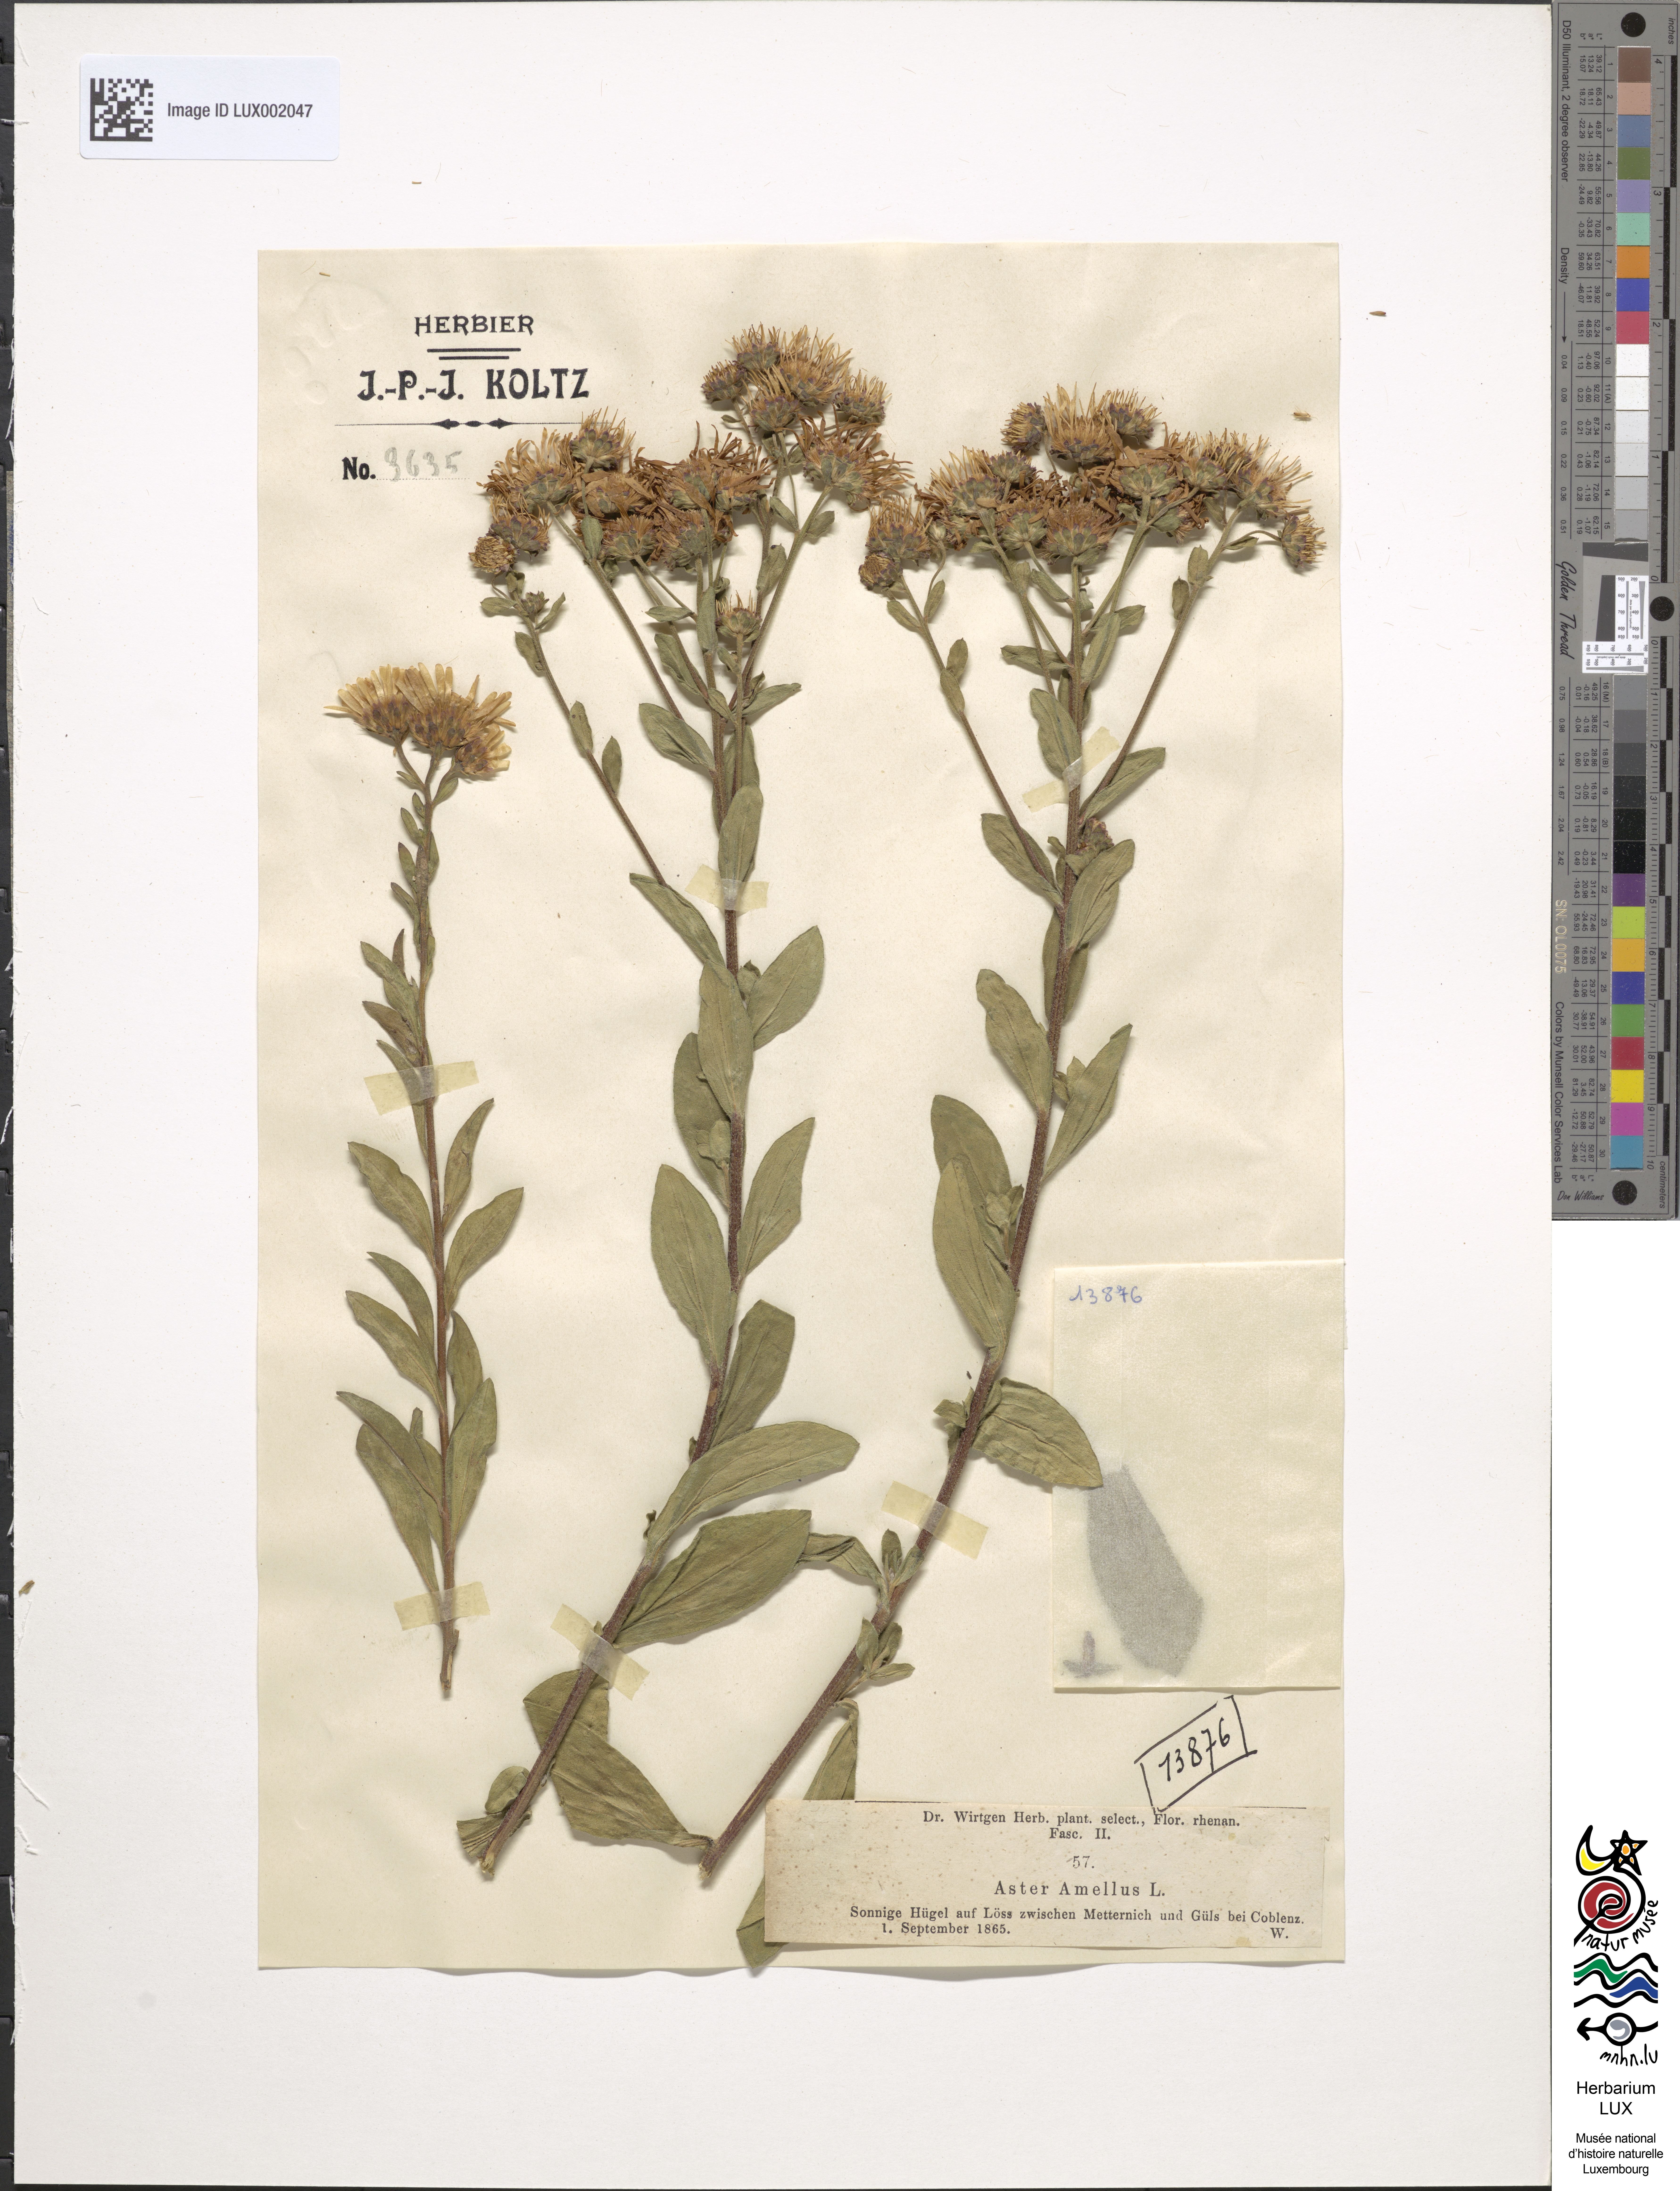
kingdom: Plantae
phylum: Tracheophyta
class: Magnoliopsida
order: Asterales
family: Asteraceae
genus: Aster
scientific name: Aster amellus
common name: European michaelmas daisy
